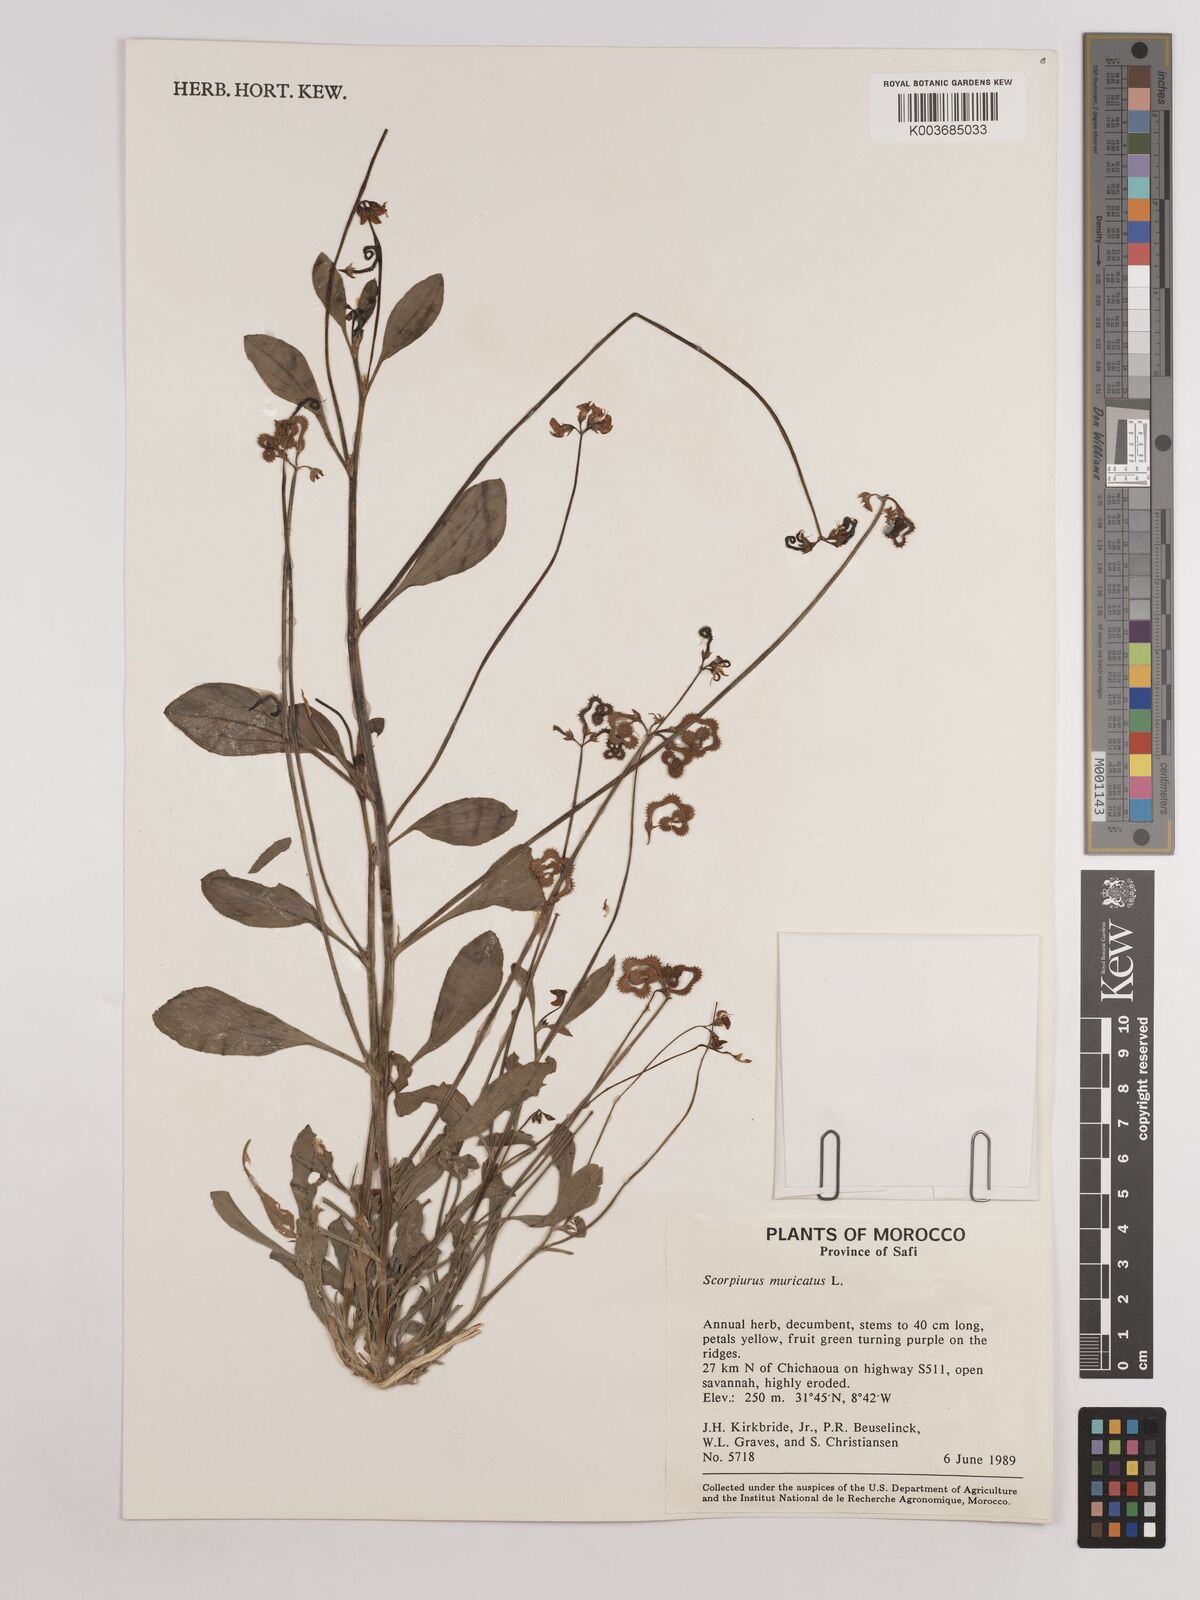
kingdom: Plantae
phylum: Tracheophyta
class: Magnoliopsida
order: Fabales
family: Fabaceae
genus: Scorpiurus
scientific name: Scorpiurus muricatus
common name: Caterpillar-plant
